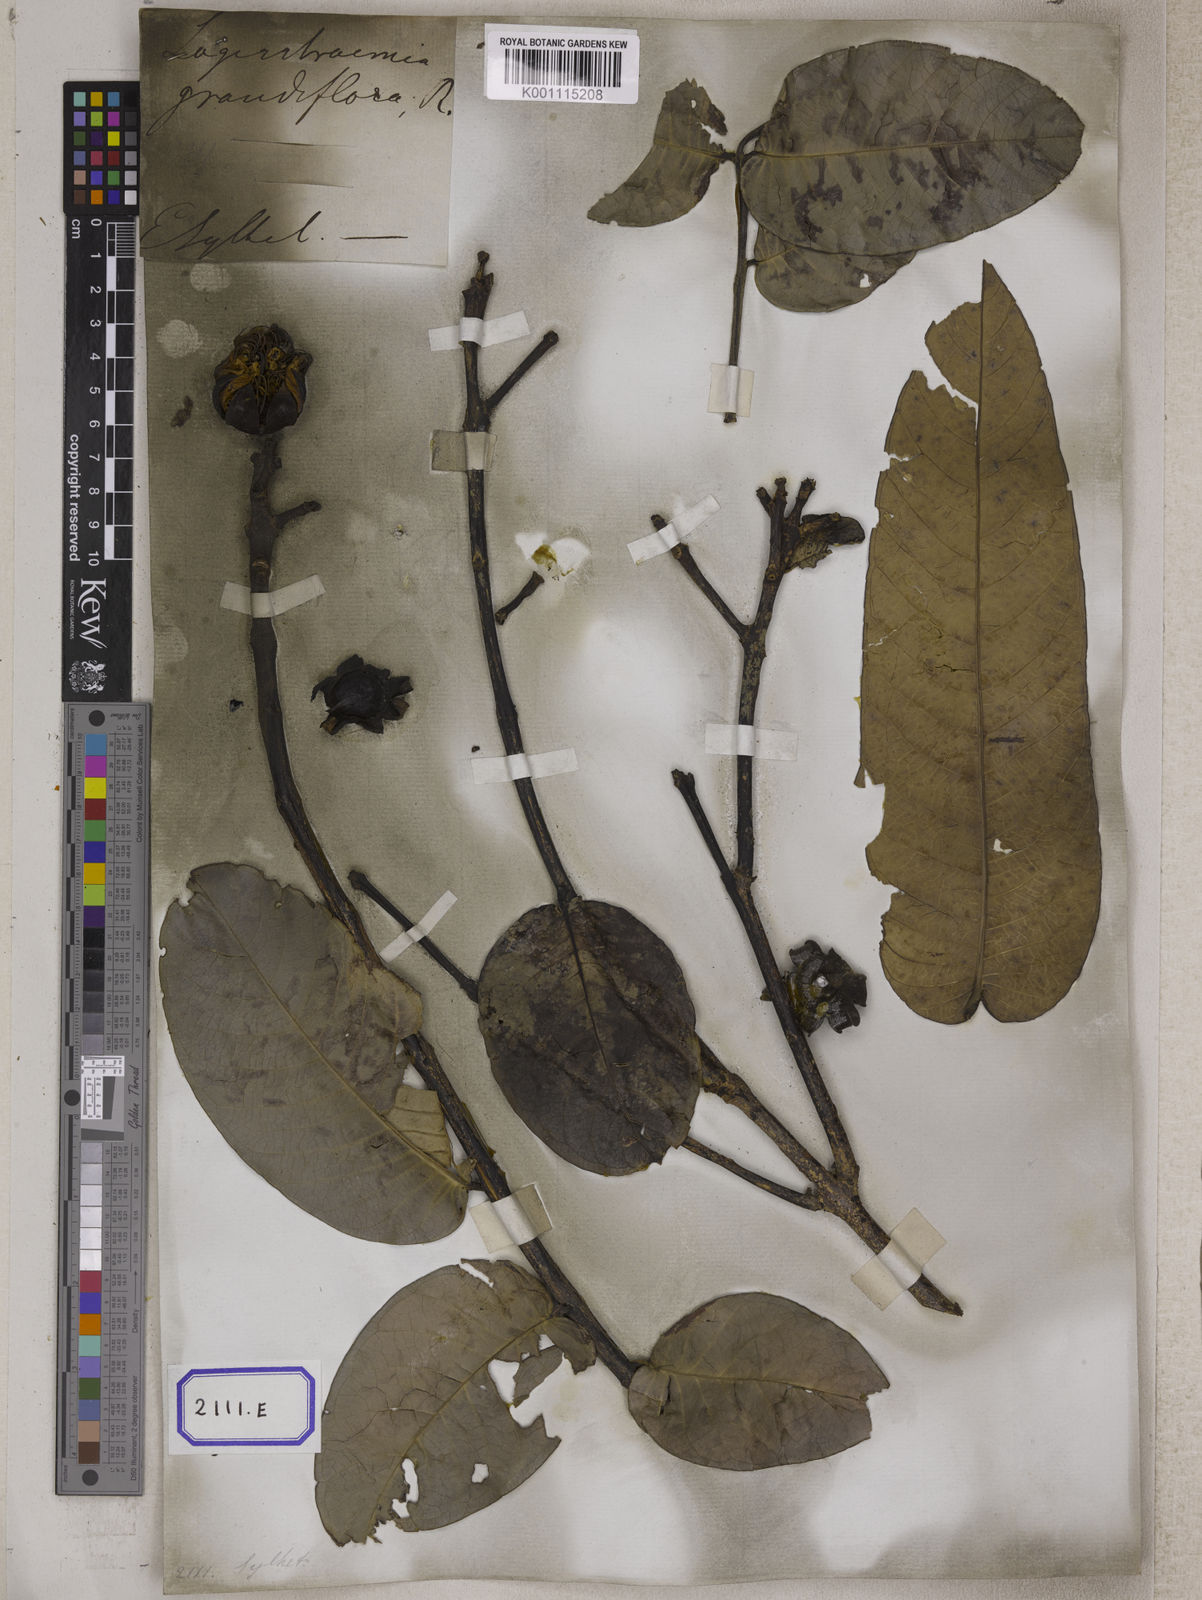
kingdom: Plantae
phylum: Tracheophyta
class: Magnoliopsida
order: Myrtales
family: Lythraceae
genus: Lagerstroemia
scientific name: Lagerstroemia
